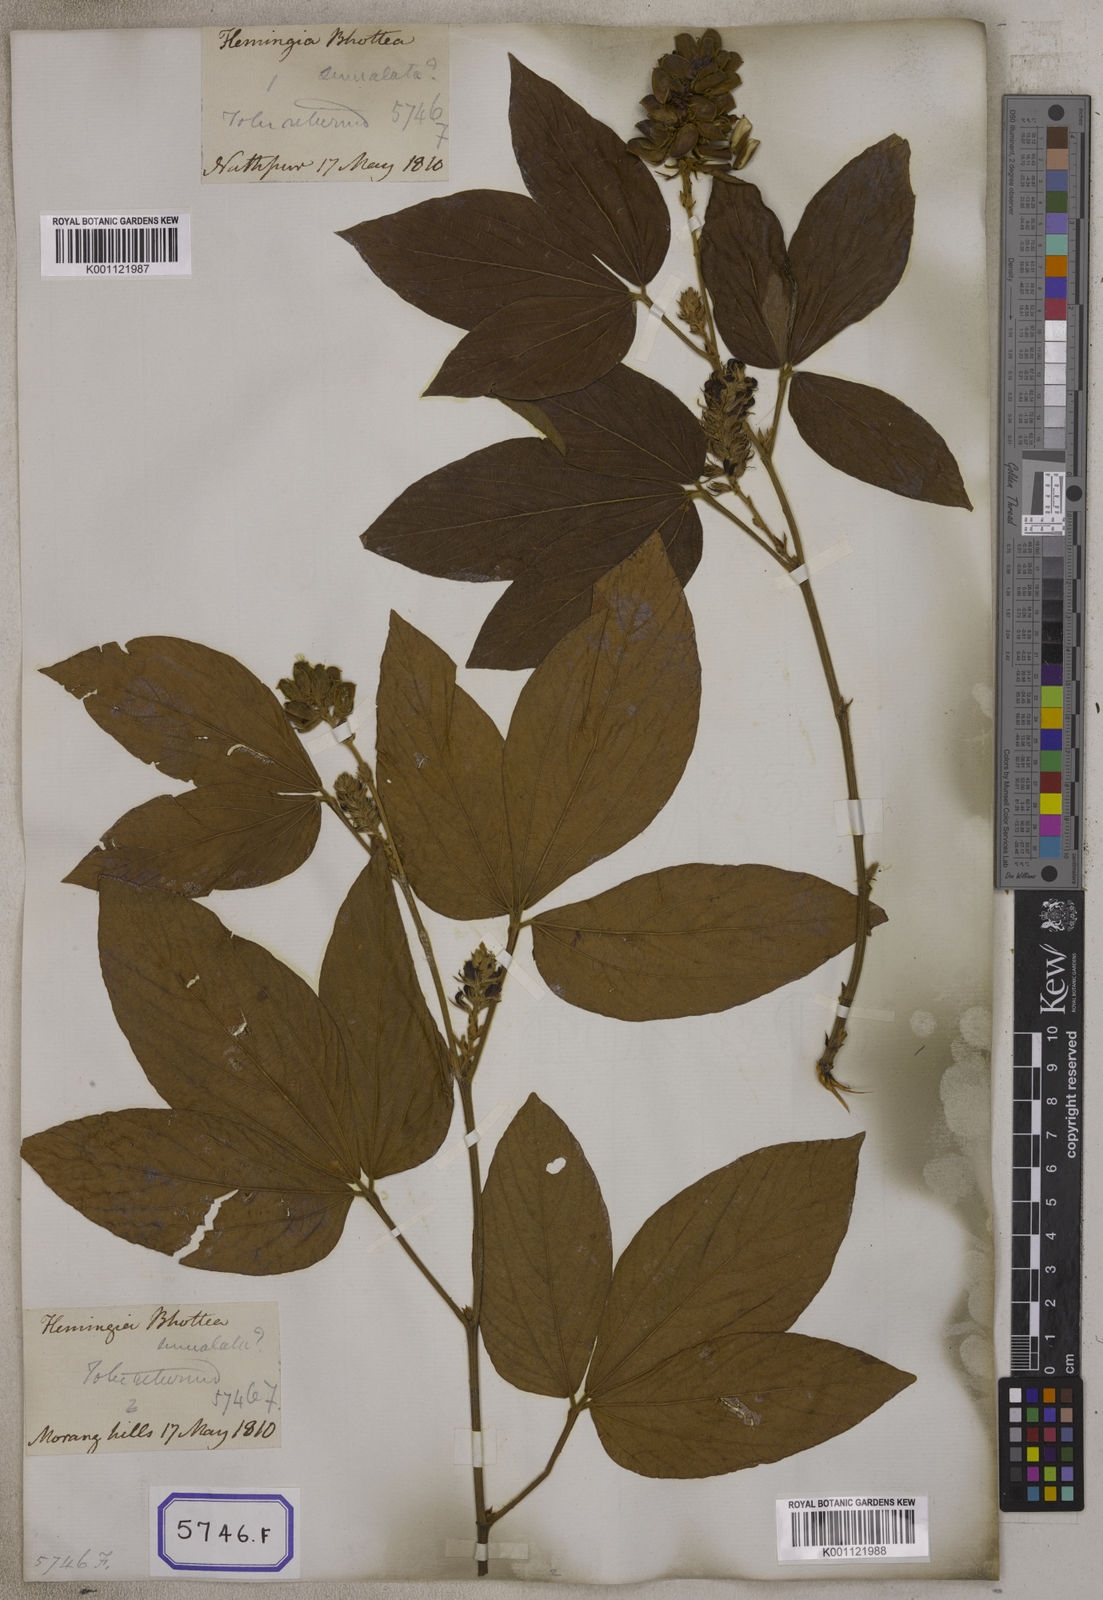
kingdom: Plantae
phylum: Tracheophyta
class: Magnoliopsida
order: Fabales
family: Fabaceae
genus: Flemingia
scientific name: Flemingia
